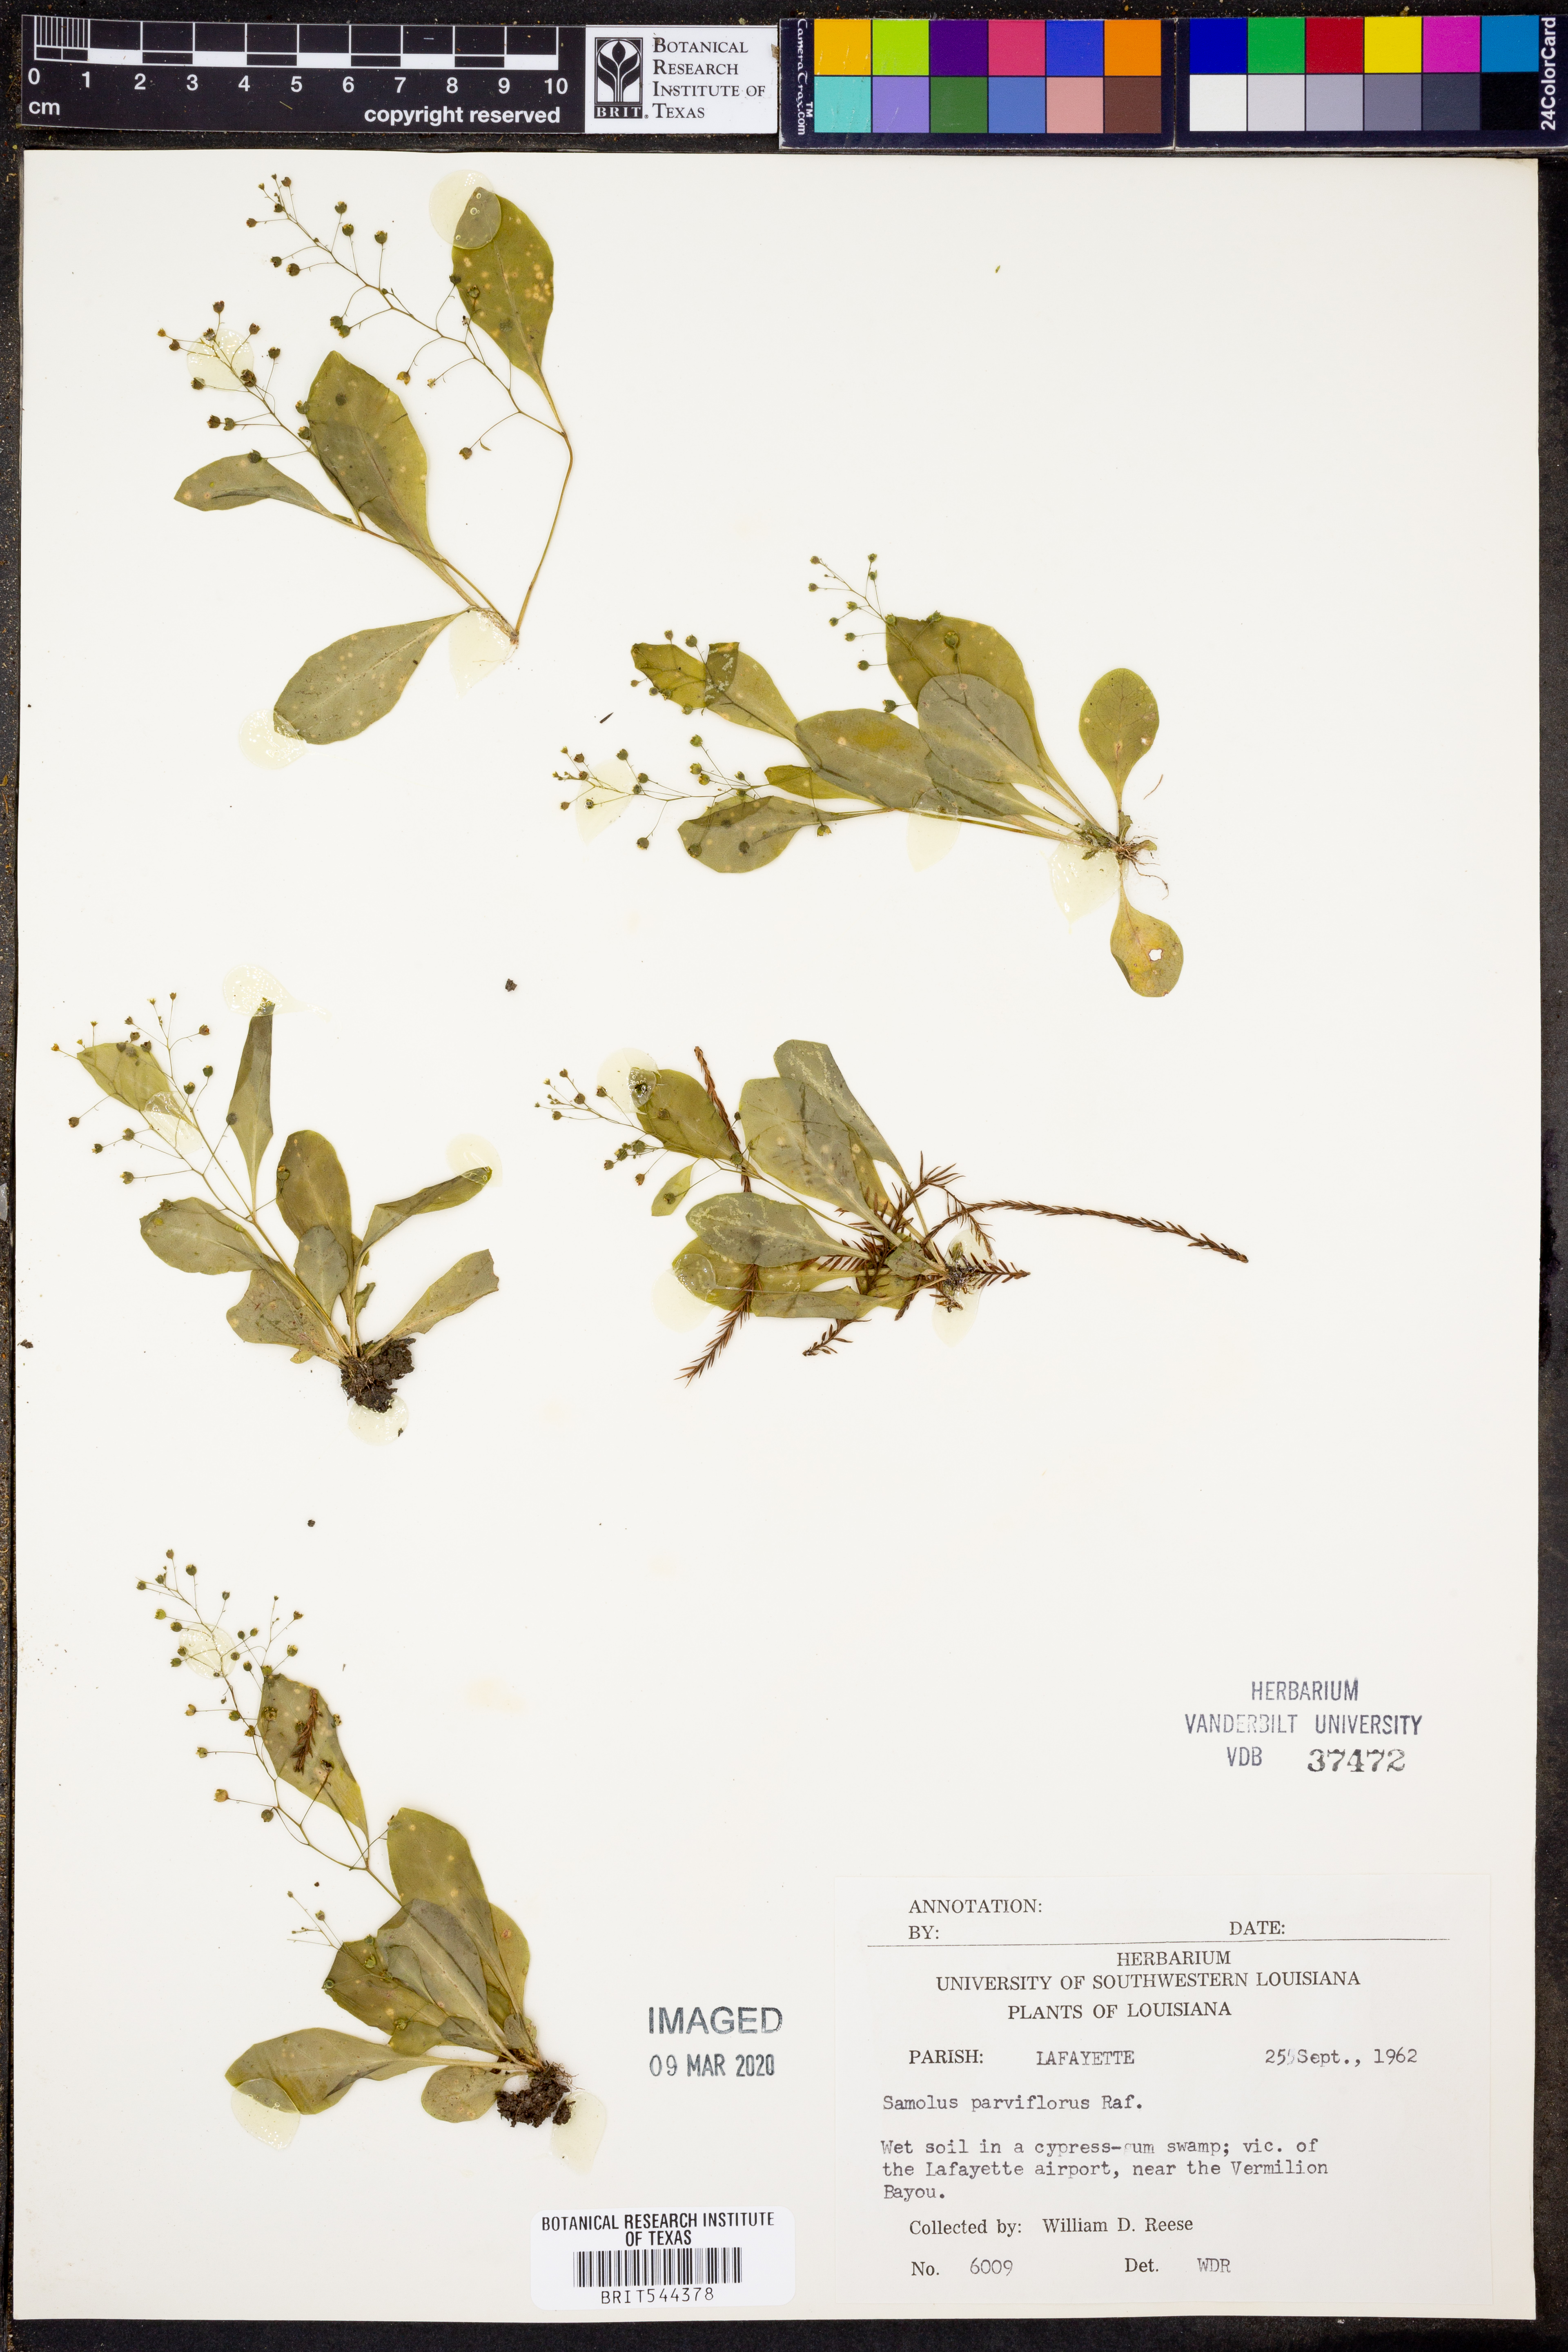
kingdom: Plantae
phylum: Tracheophyta
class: Magnoliopsida
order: Ericales
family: Primulaceae
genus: Samolus
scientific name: Samolus parviflorus
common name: False water pimpernel
